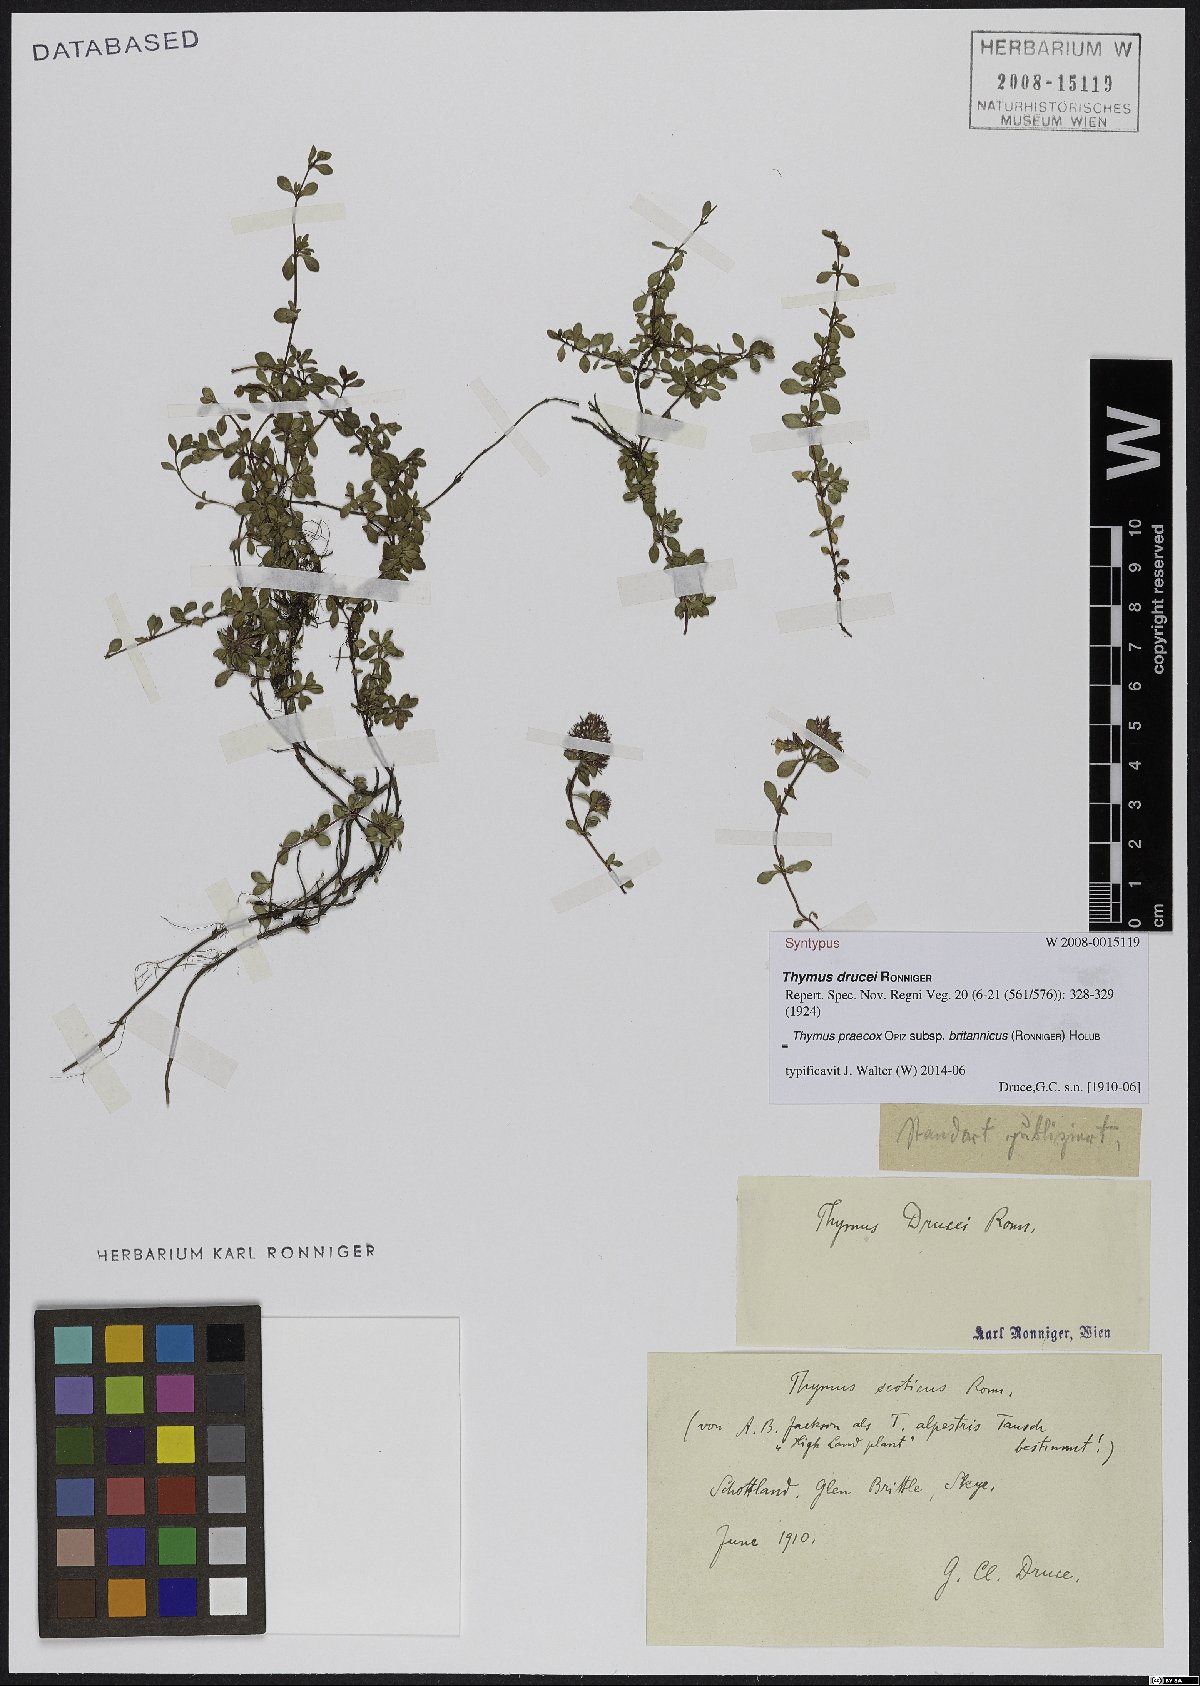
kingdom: Plantae
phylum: Tracheophyta
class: Magnoliopsida
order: Lamiales
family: Lamiaceae
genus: Thymus
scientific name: Thymus praecox
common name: Wild thyme
